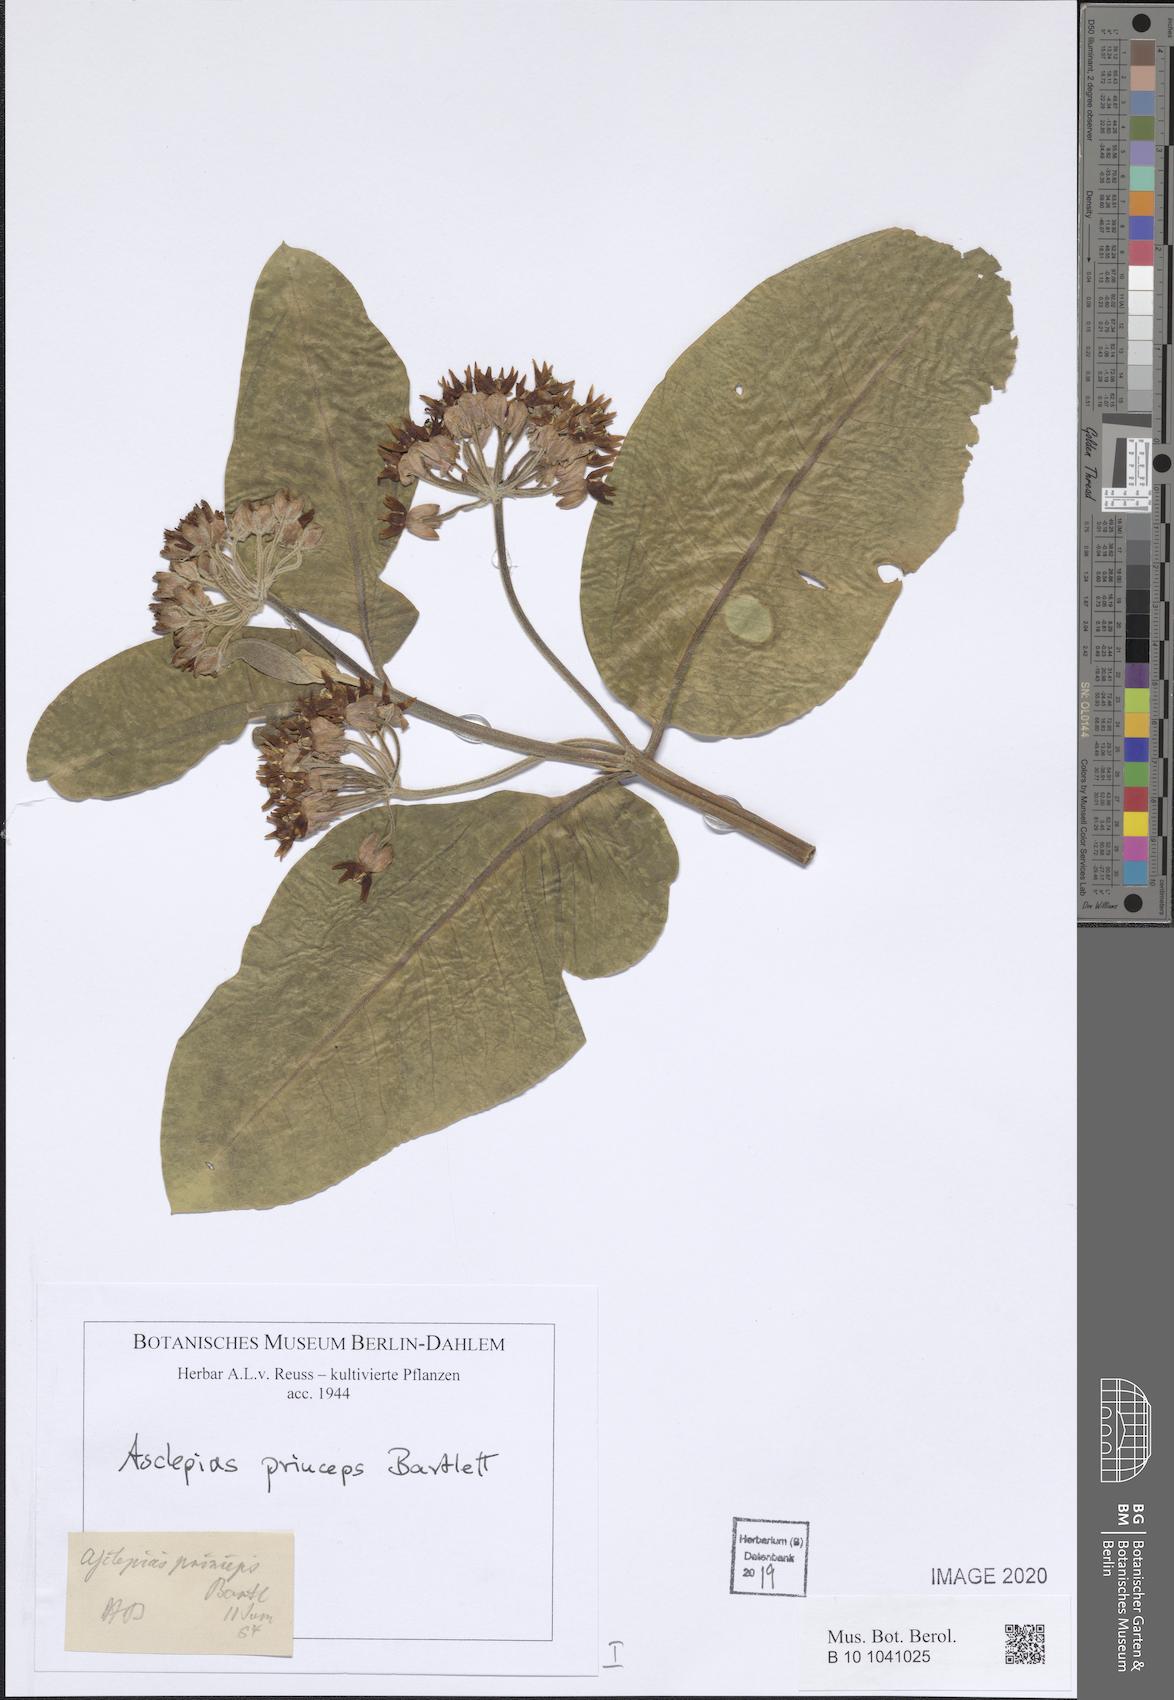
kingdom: Plantae
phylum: Tracheophyta
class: Magnoliopsida
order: Gentianales
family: Apocynaceae
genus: Asclepias
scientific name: Asclepias princeps
